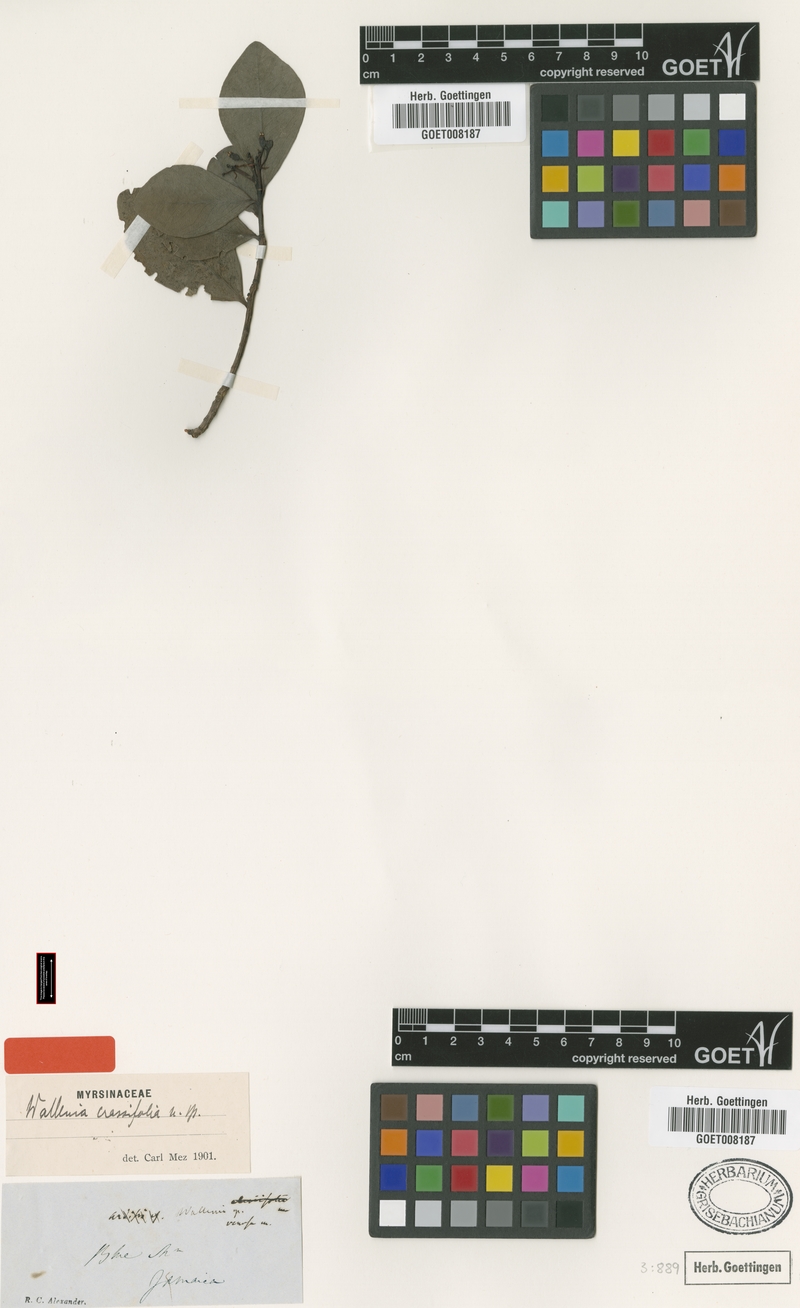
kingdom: Plantae
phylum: Tracheophyta
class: Magnoliopsida
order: Ericales
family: Primulaceae
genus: Wallenia
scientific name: Wallenia crassifolia
